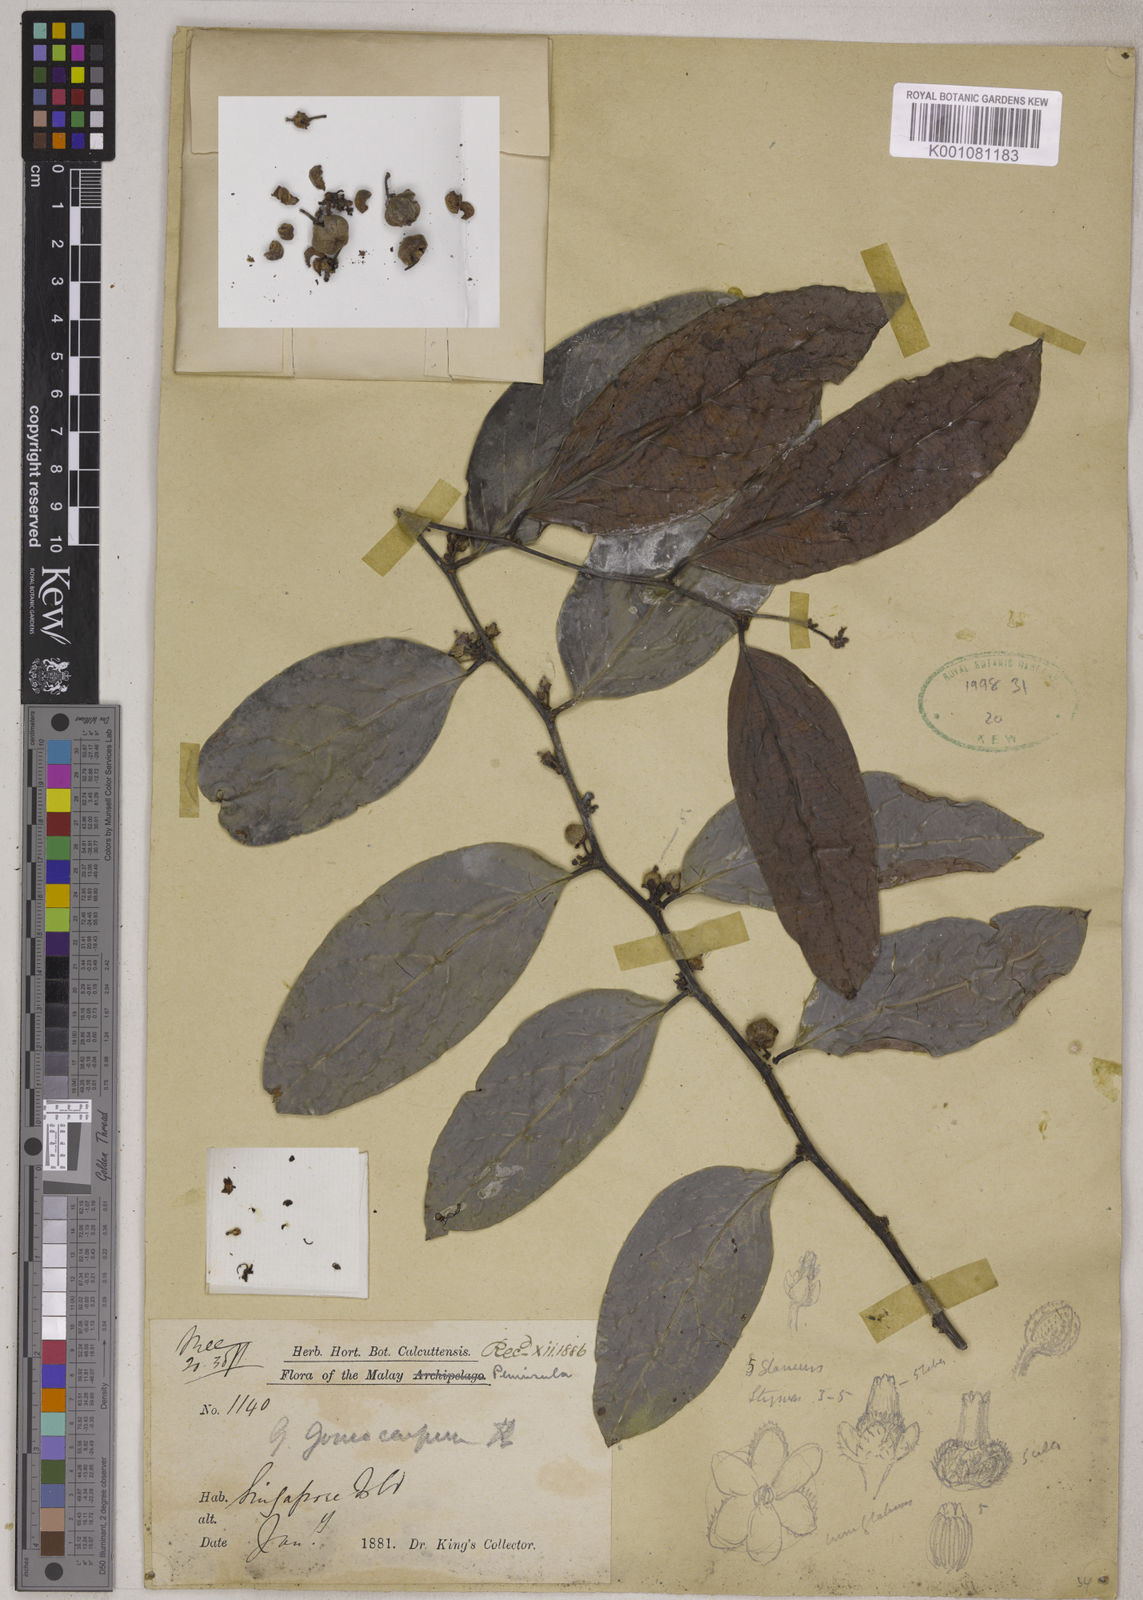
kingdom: Plantae
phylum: Tracheophyta
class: Magnoliopsida
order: Malpighiales
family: Phyllanthaceae
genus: Glochidion
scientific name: Glochidion zeylanicum
